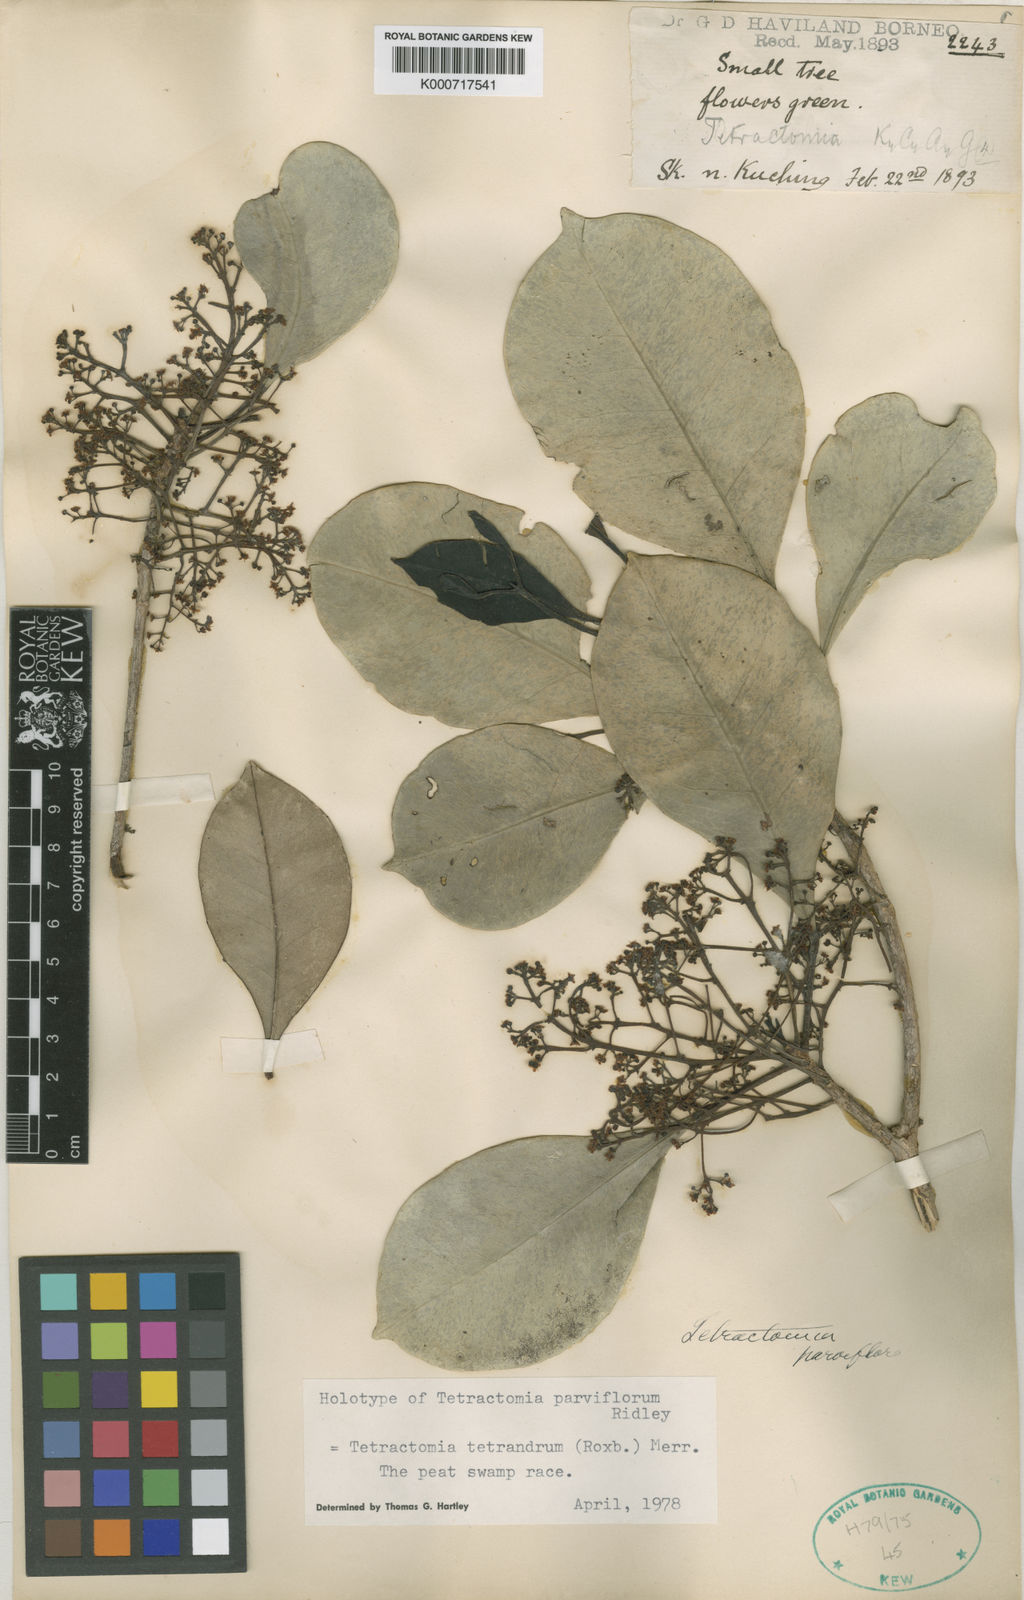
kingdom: Plantae
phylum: Tracheophyta
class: Magnoliopsida
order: Sapindales
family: Rutaceae
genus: Tetractomia
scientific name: Tetractomia tetrandra
